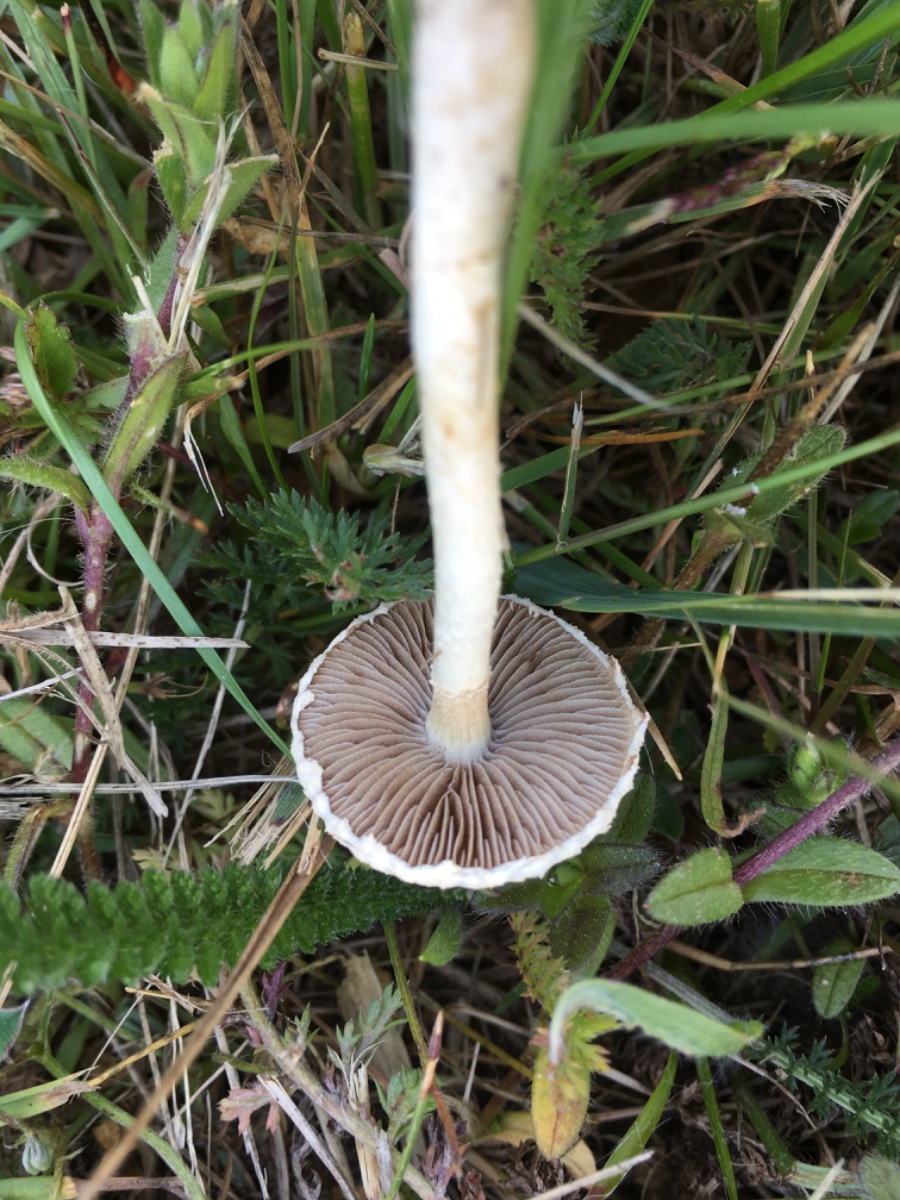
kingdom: Fungi
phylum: Basidiomycota
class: Agaricomycetes
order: Agaricales
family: Strophariaceae
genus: Agrocybe
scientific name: Agrocybe
